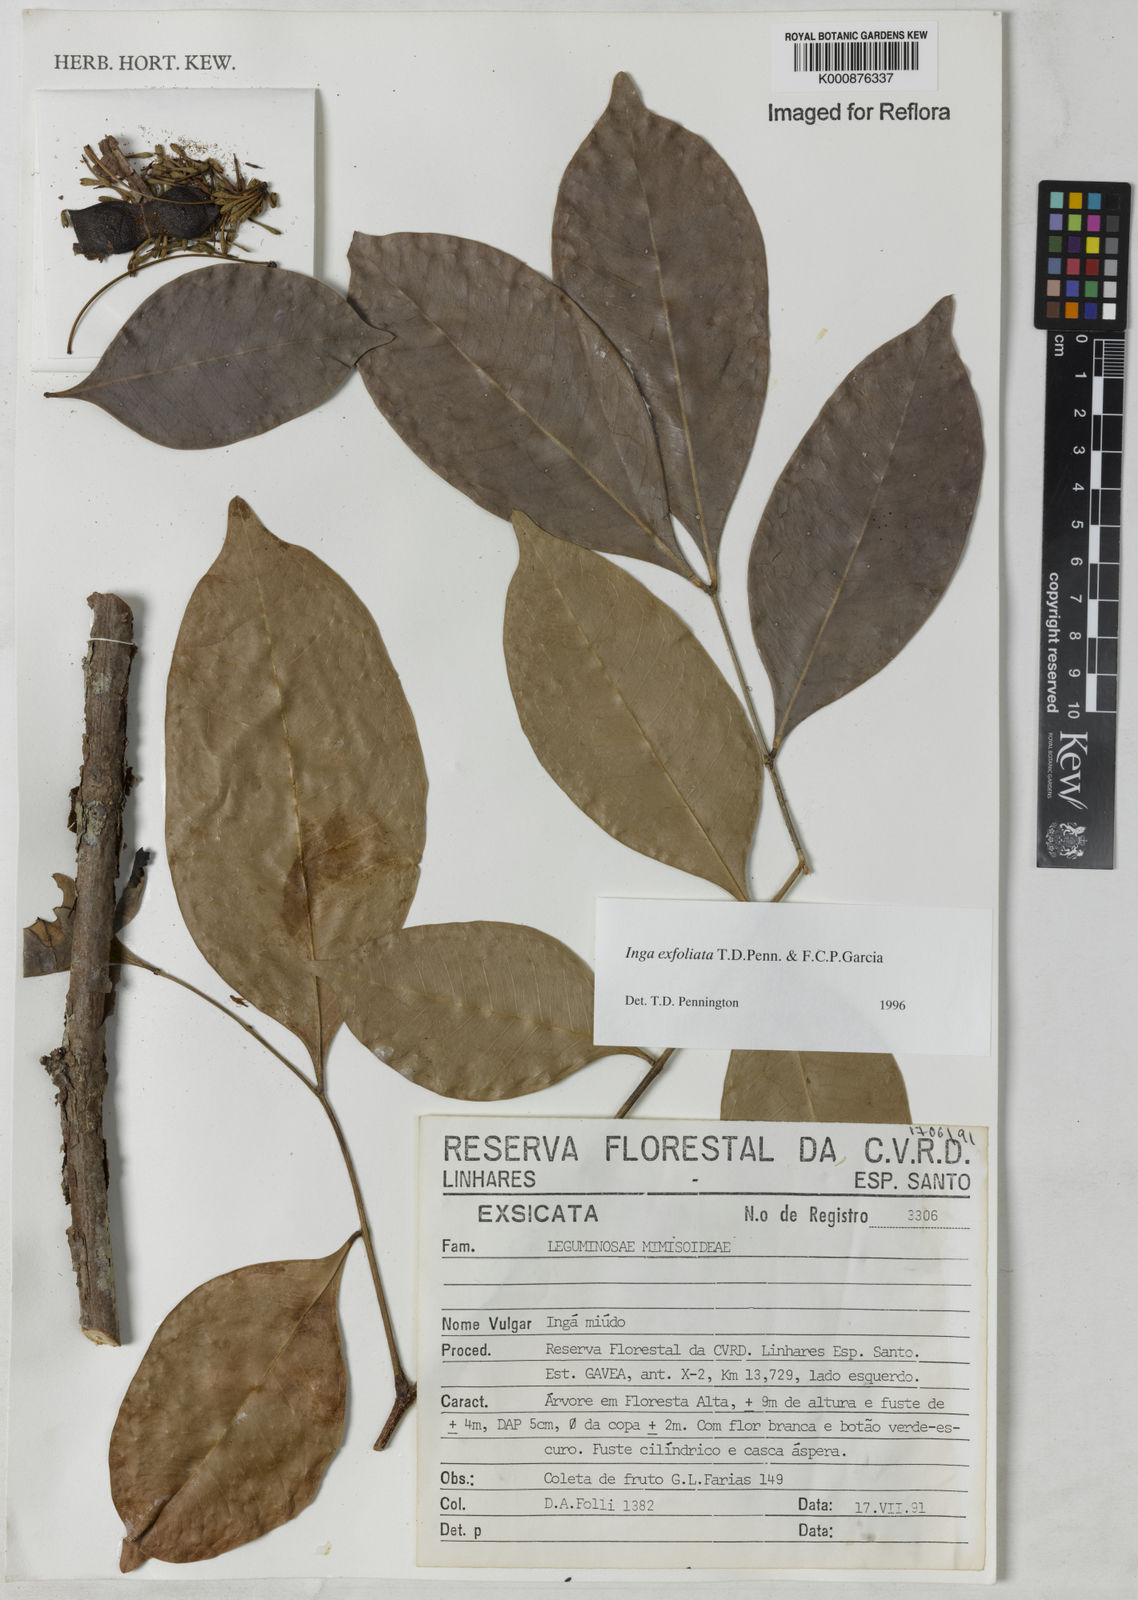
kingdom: Plantae
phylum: Tracheophyta
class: Magnoliopsida
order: Fabales
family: Fabaceae
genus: Inga
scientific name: Inga
